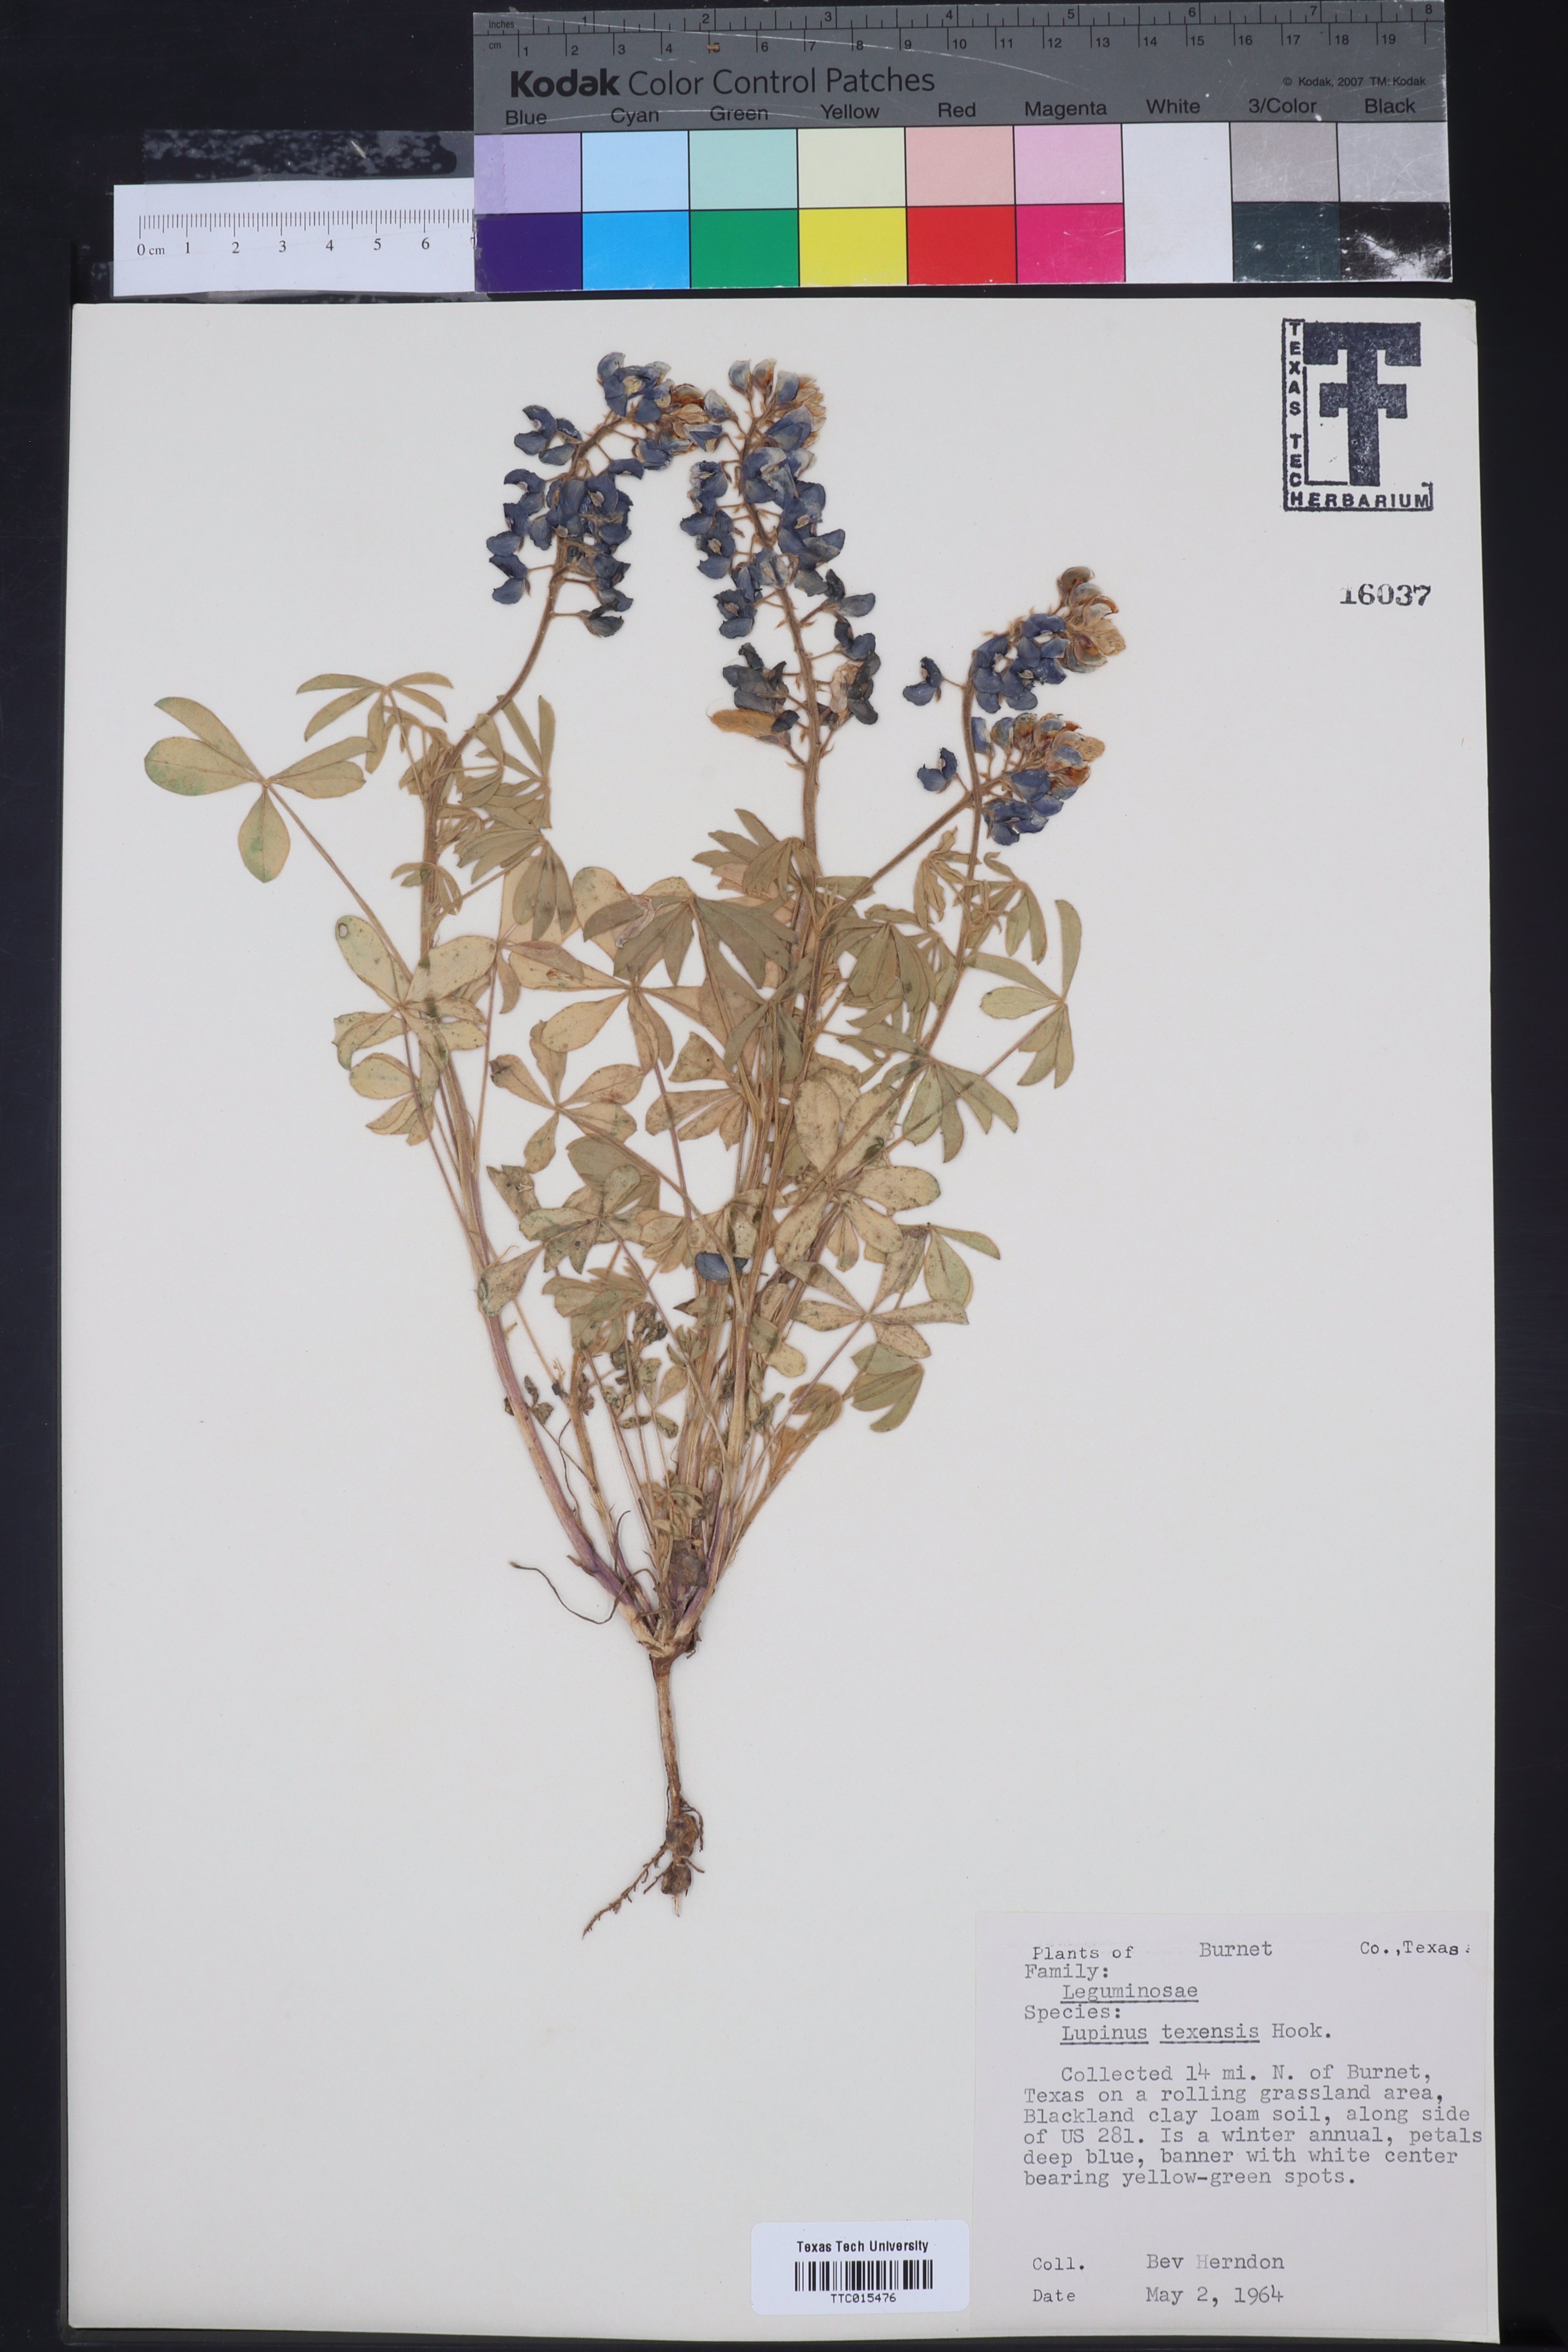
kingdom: Plantae
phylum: Tracheophyta
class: Magnoliopsida
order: Fabales
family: Fabaceae
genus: Lupinus
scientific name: Lupinus texensis
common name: Texas bluebonnet
